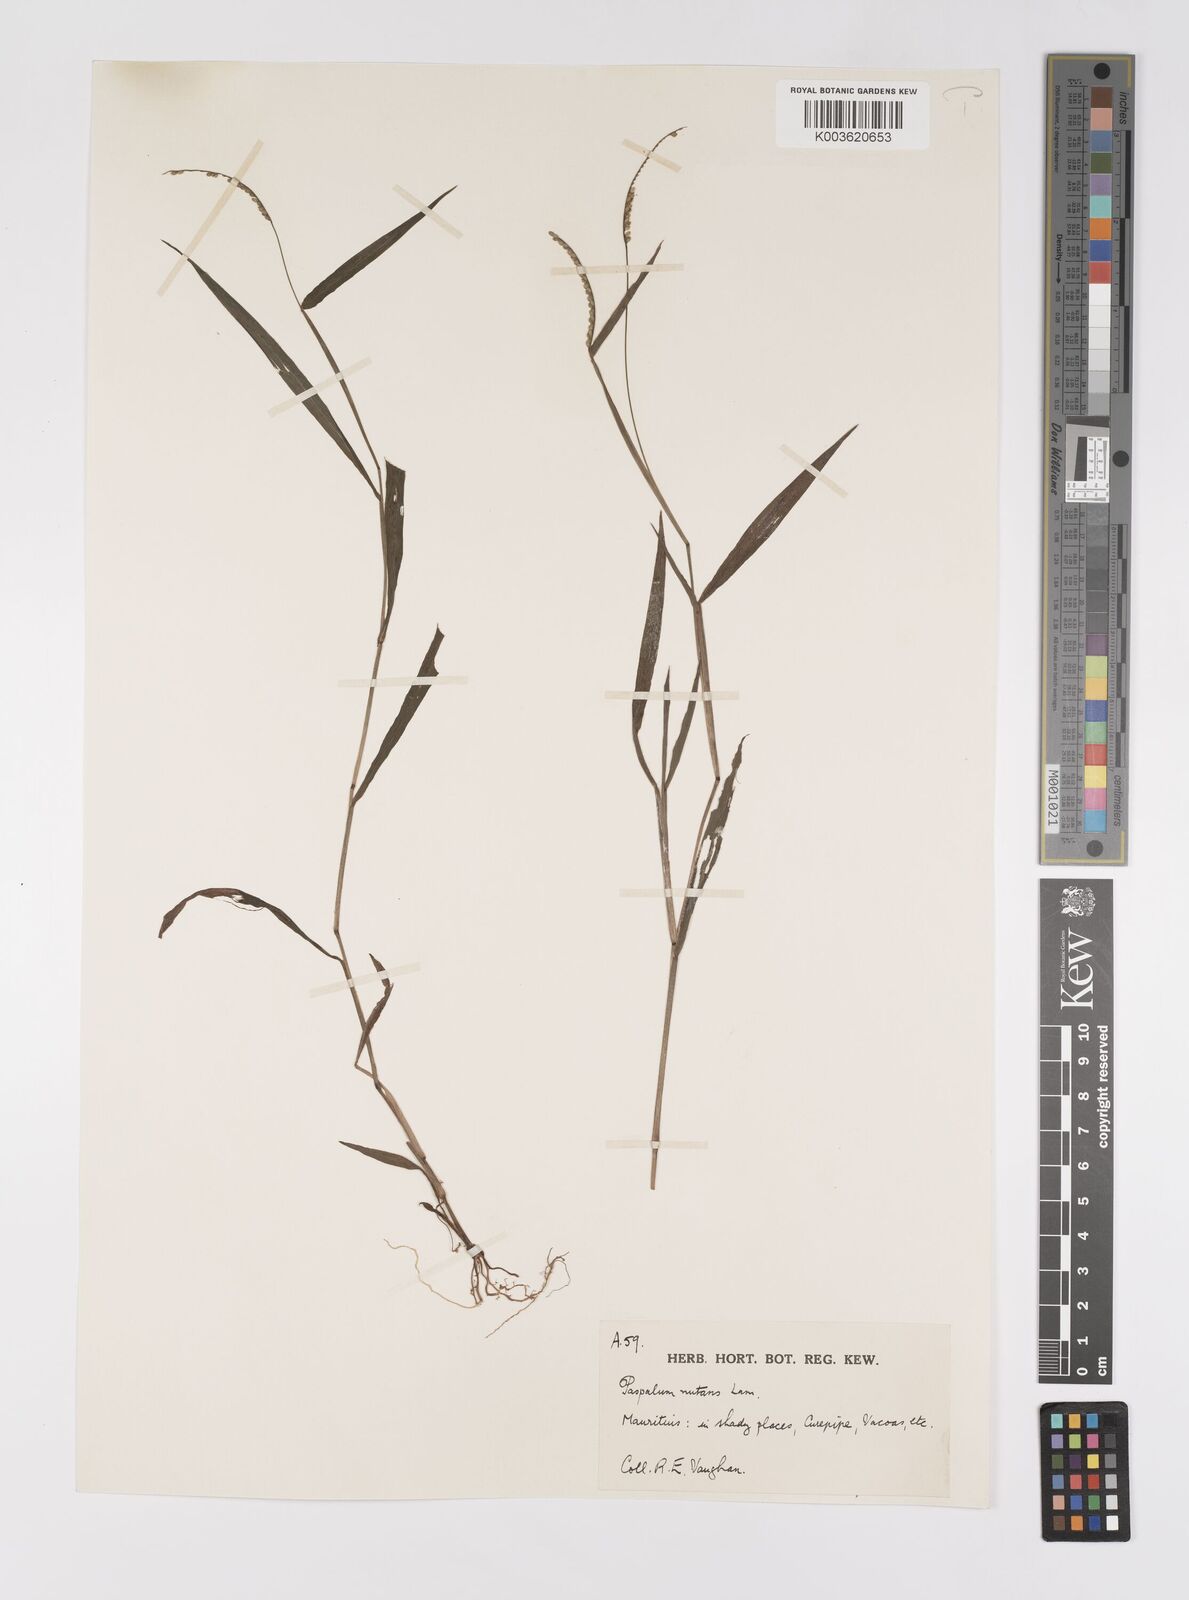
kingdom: Plantae
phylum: Tracheophyta
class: Liliopsida
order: Poales
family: Poaceae
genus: Paspalum
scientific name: Paspalum nutans
